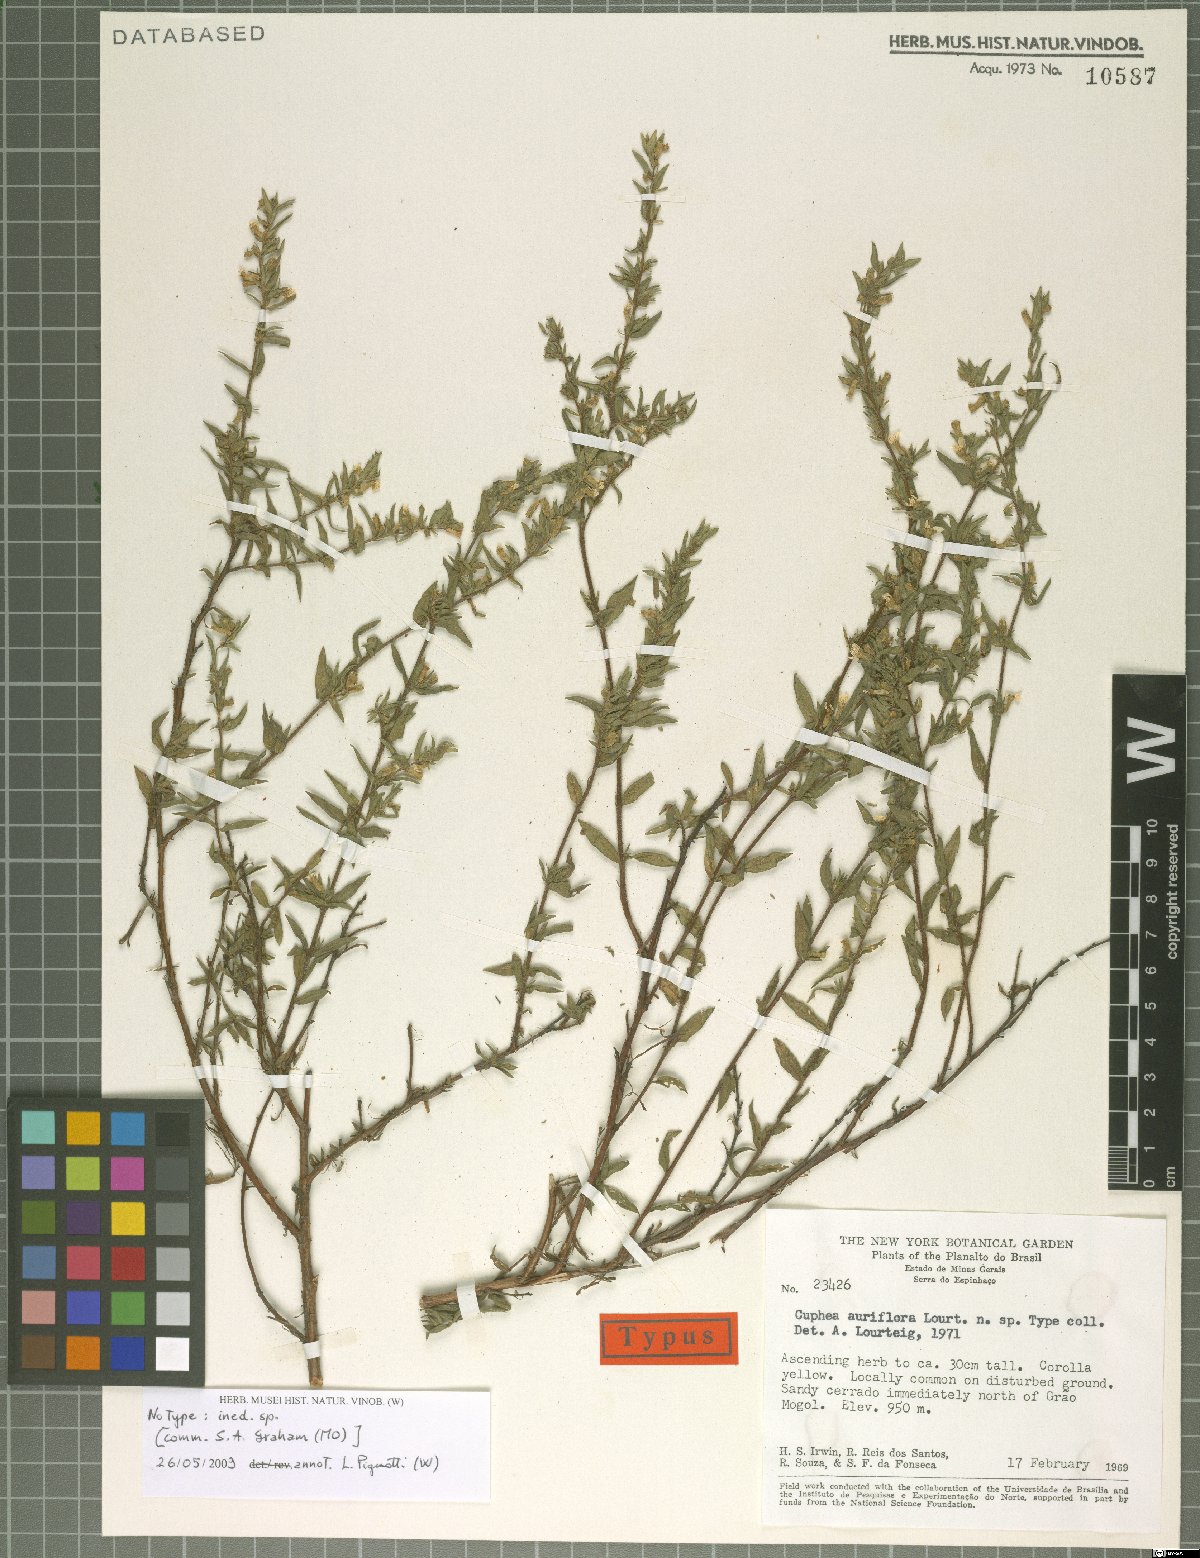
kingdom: Plantae
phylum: Tracheophyta
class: Magnoliopsida
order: Myrtales
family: Lythraceae
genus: Cuphea
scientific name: Cuphea auriflora
